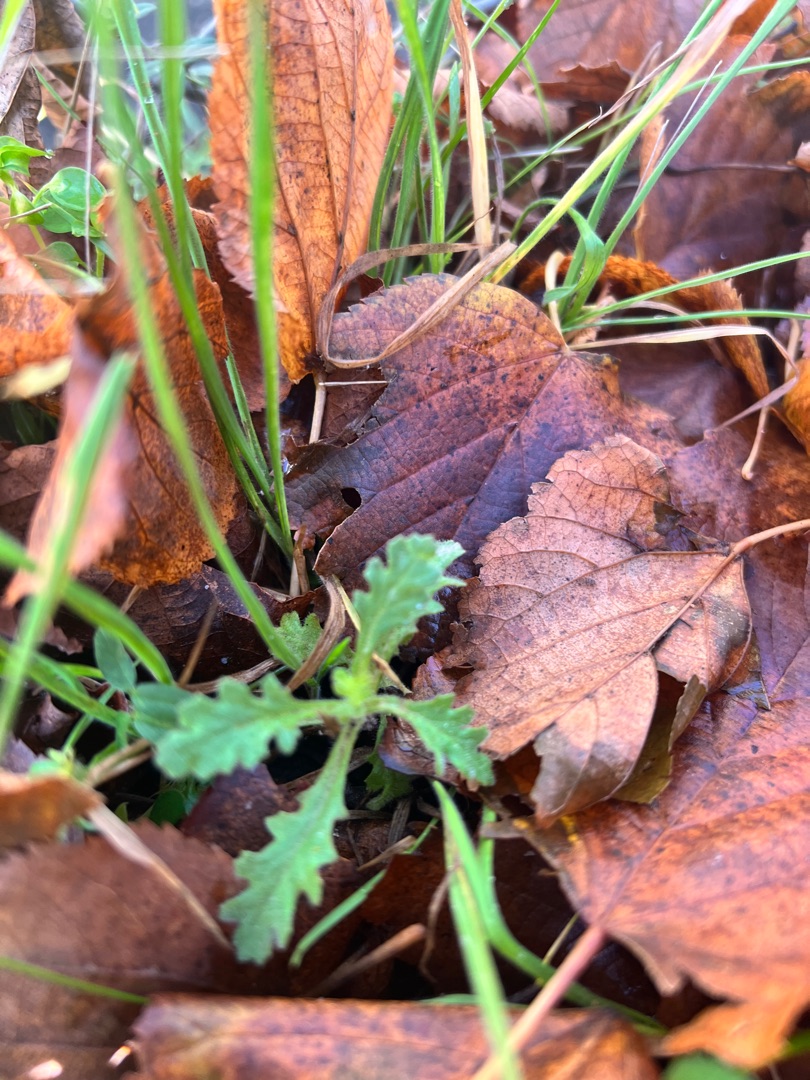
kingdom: Plantae
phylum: Tracheophyta
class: Magnoliopsida
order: Asterales
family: Asteraceae
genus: Senecio
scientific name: Senecio vulgaris
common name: Almindelig brandbæger
